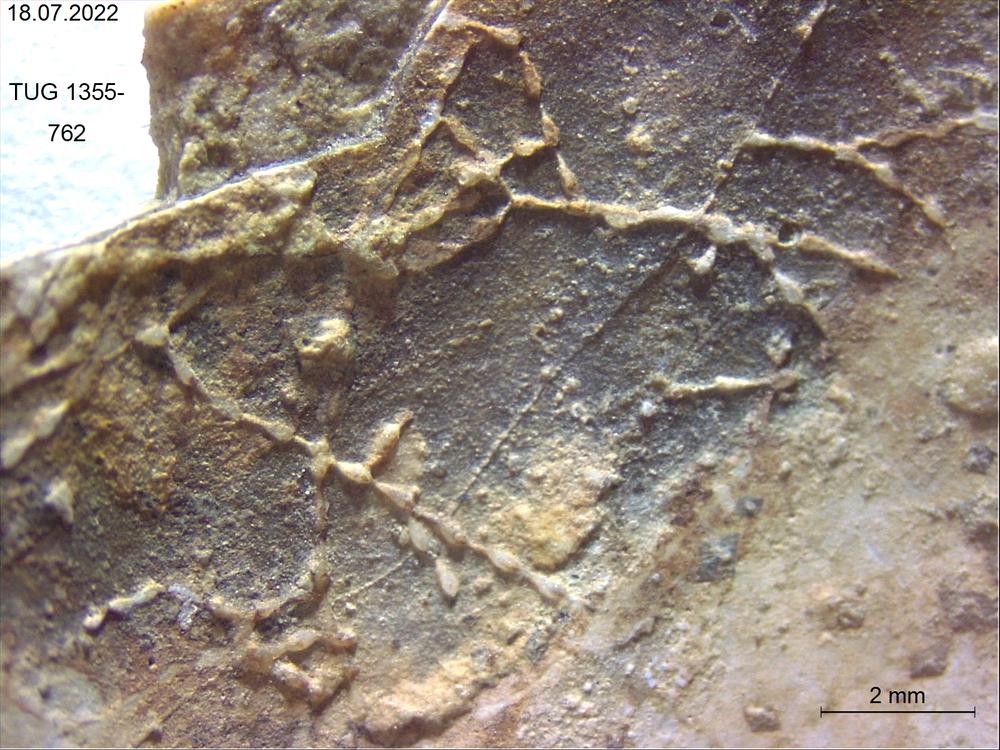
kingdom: Animalia
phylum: Bryozoa
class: Stenolaemata
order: Cyclostomatida
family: Corynotrypidae
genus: Corynotrypa
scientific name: Corynotrypa
